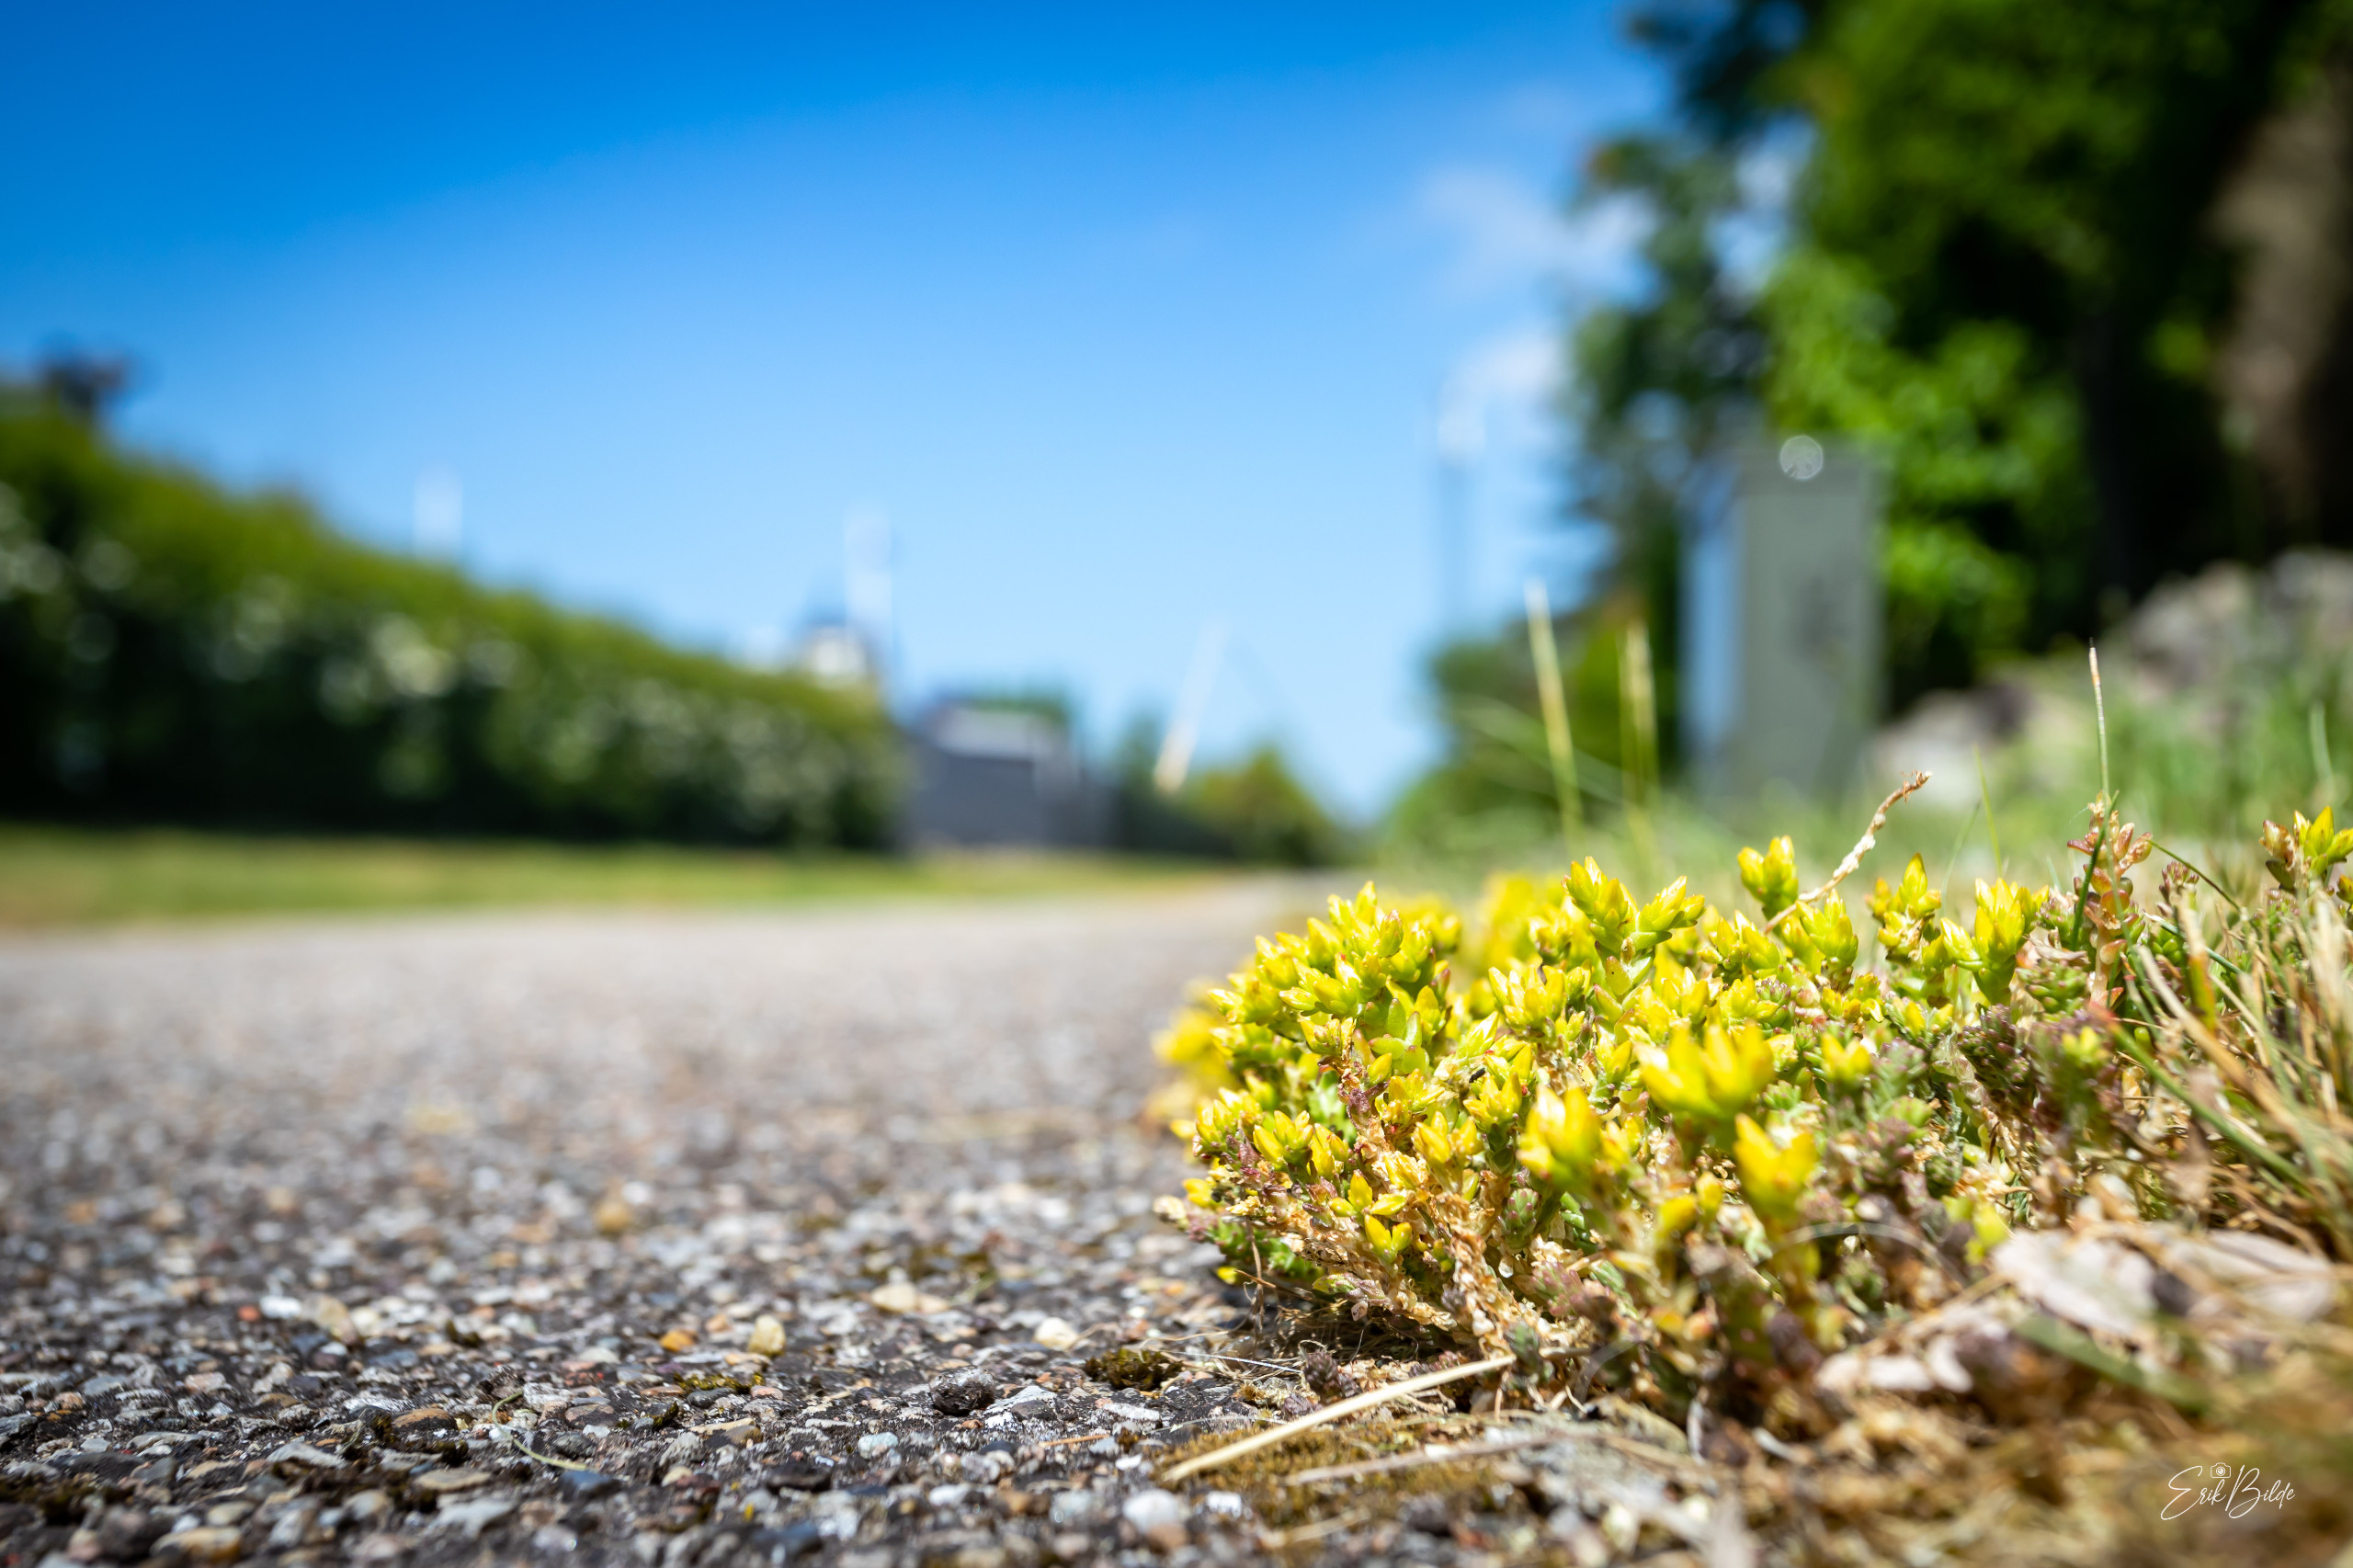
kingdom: Plantae
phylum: Tracheophyta
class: Magnoliopsida
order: Saxifragales
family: Crassulaceae
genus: Sedum
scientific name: Sedum acre
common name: Bidende stenurt
